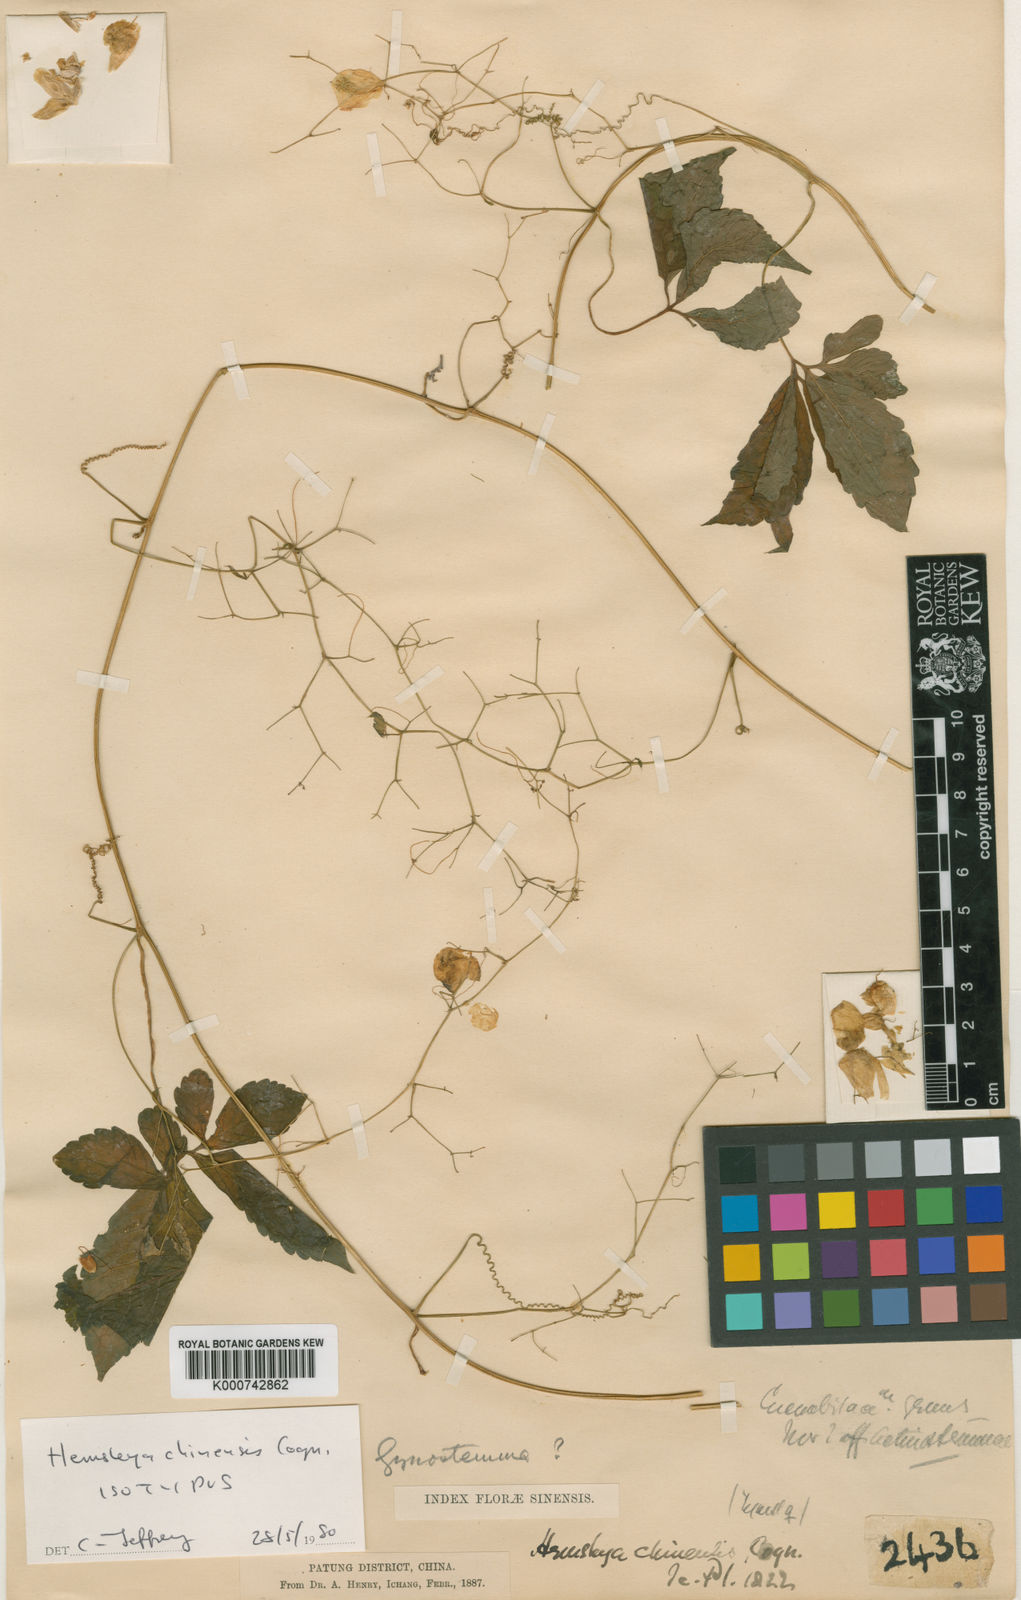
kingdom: Plantae
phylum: Tracheophyta
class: Magnoliopsida
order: Cucurbitales
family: Cucurbitaceae
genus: Hemsleya
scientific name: Hemsleya chinensis
